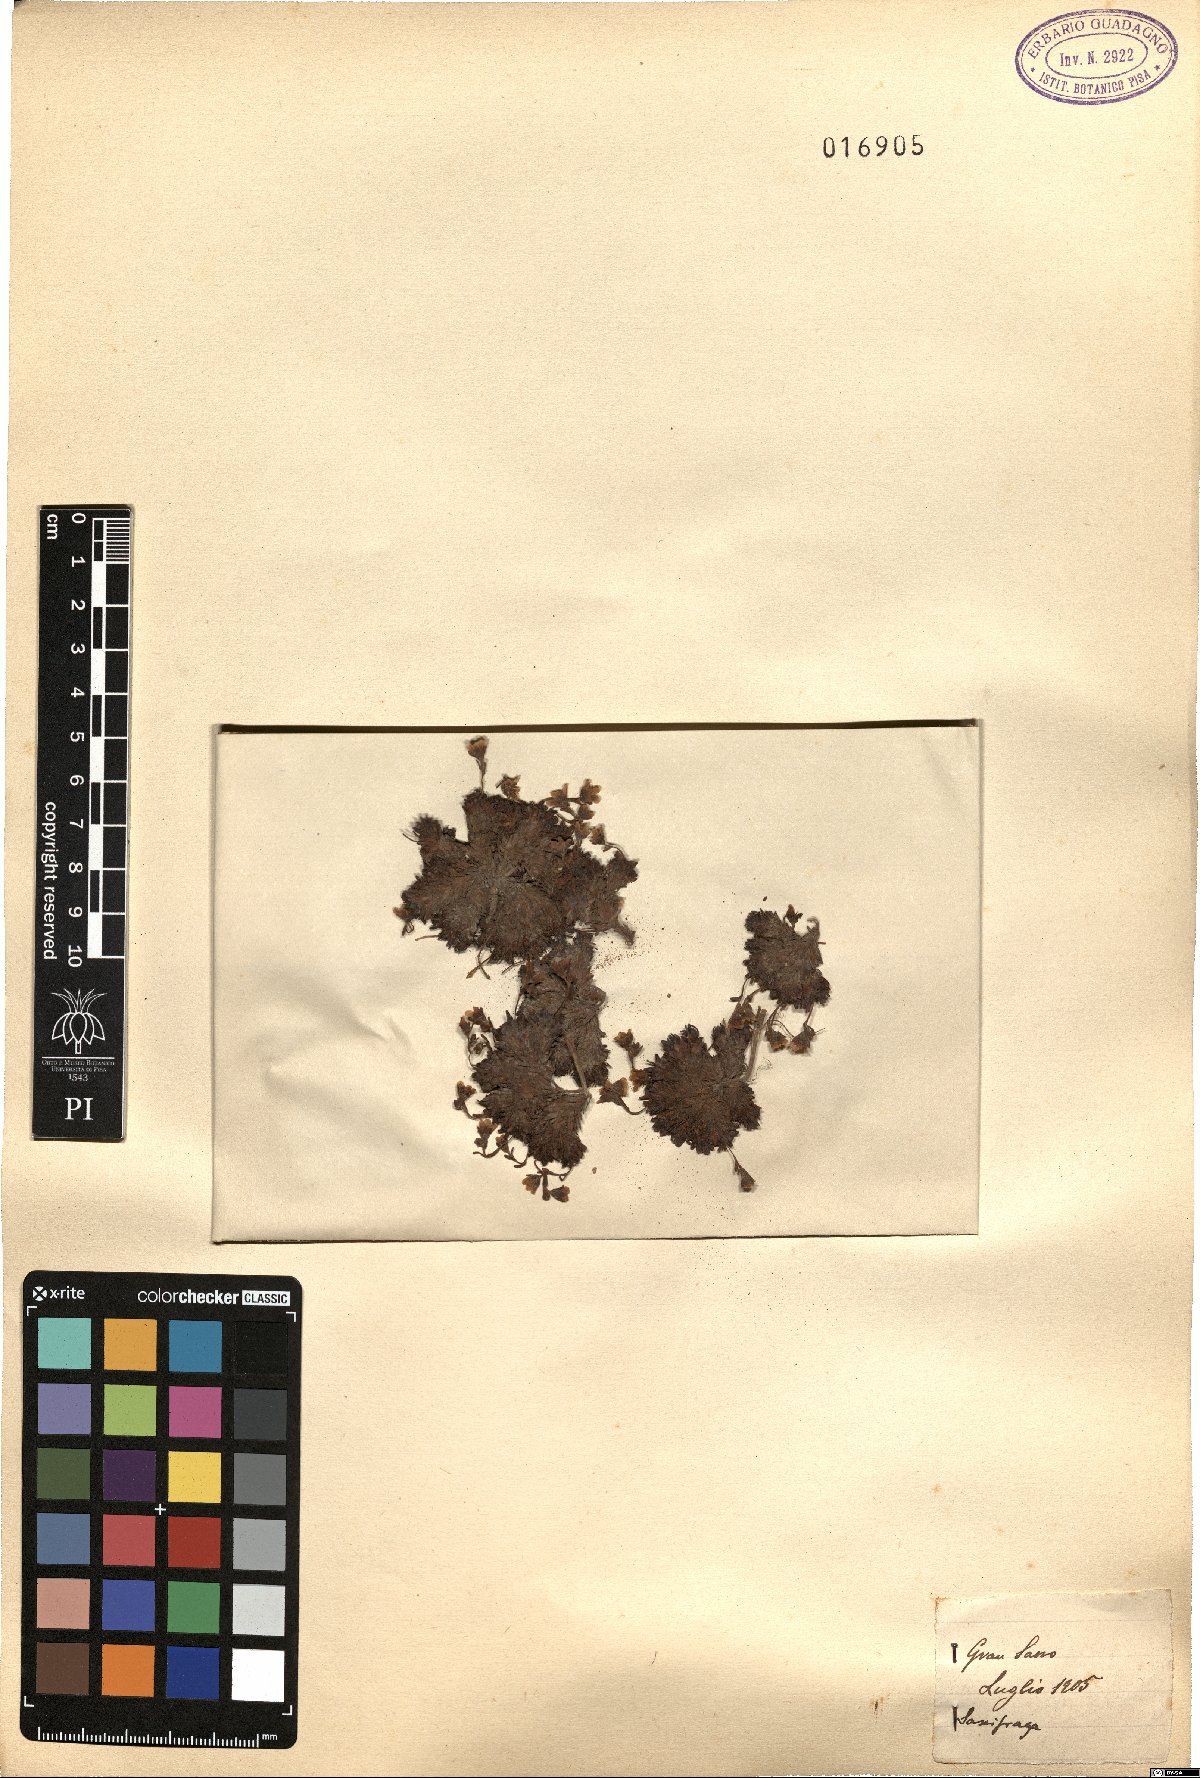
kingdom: Plantae
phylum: Tracheophyta
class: Magnoliopsida
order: Saxifragales
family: Saxifragaceae
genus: Saxifraga
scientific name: Saxifraga
